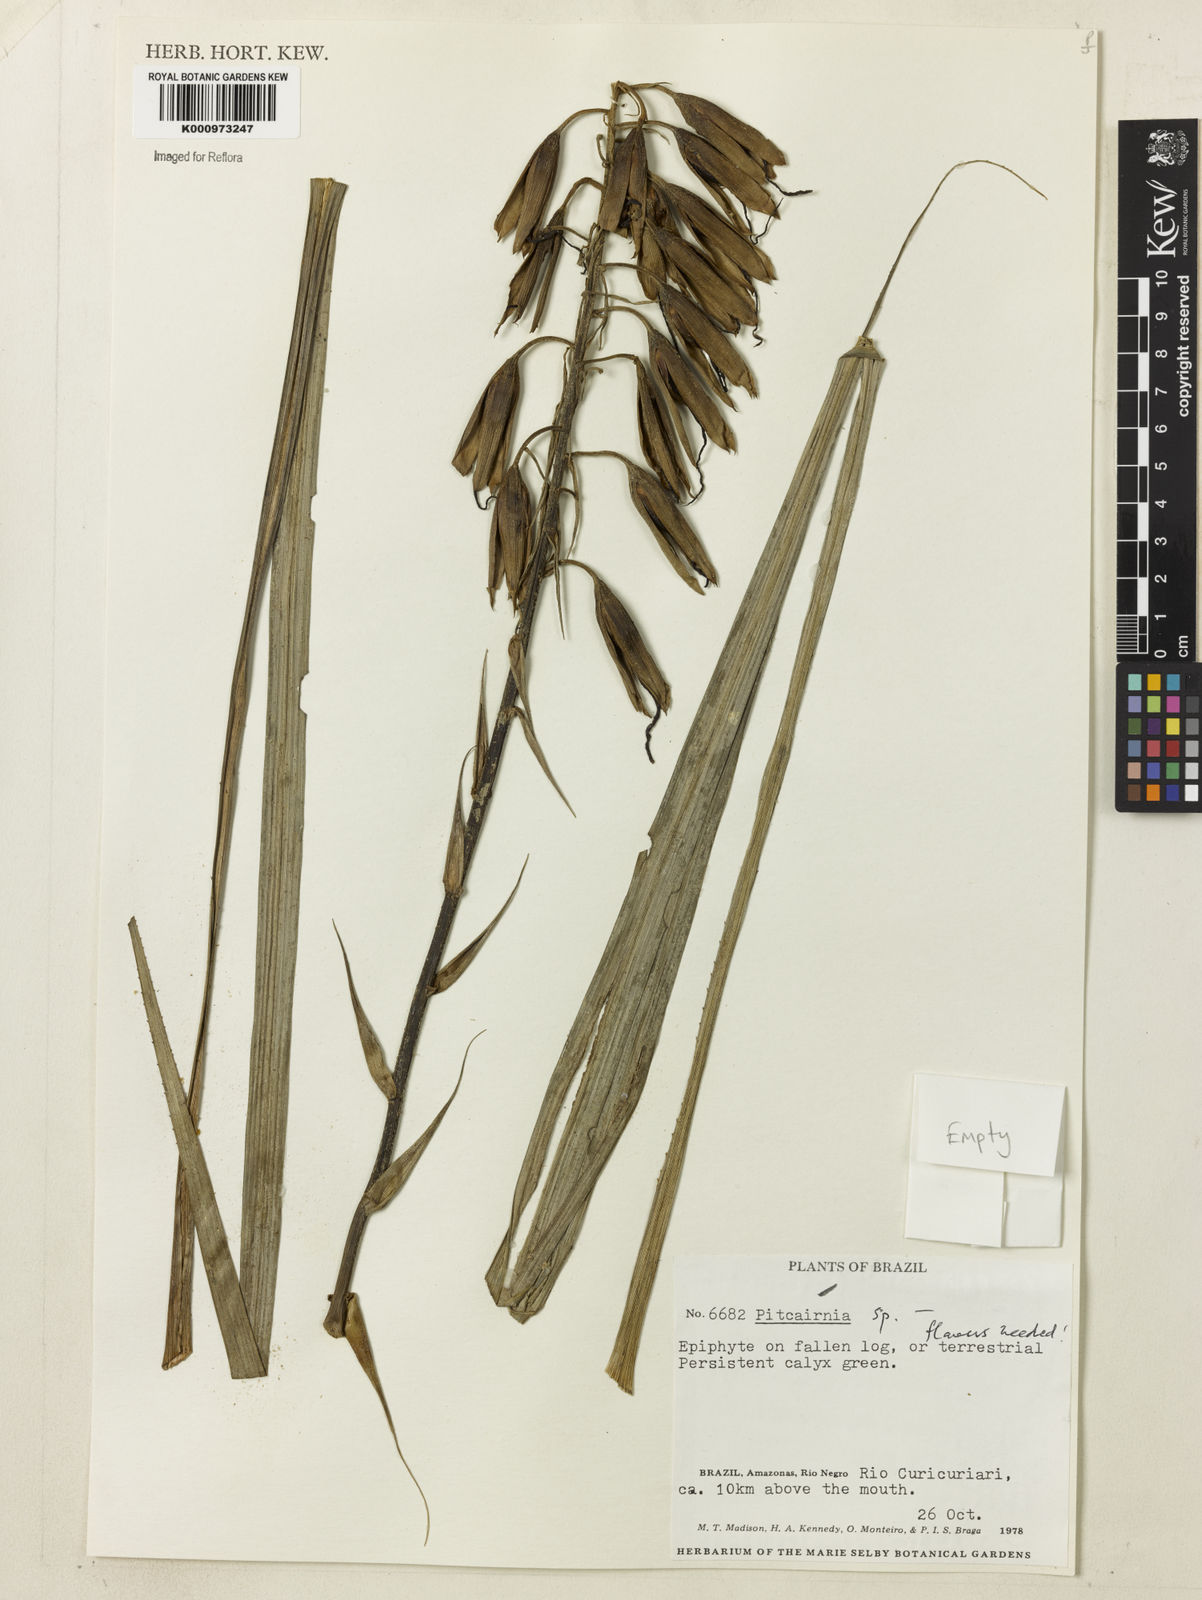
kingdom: Plantae
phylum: Tracheophyta
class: Liliopsida
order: Poales
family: Bromeliaceae
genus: Pitcairnia
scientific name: Pitcairnia
